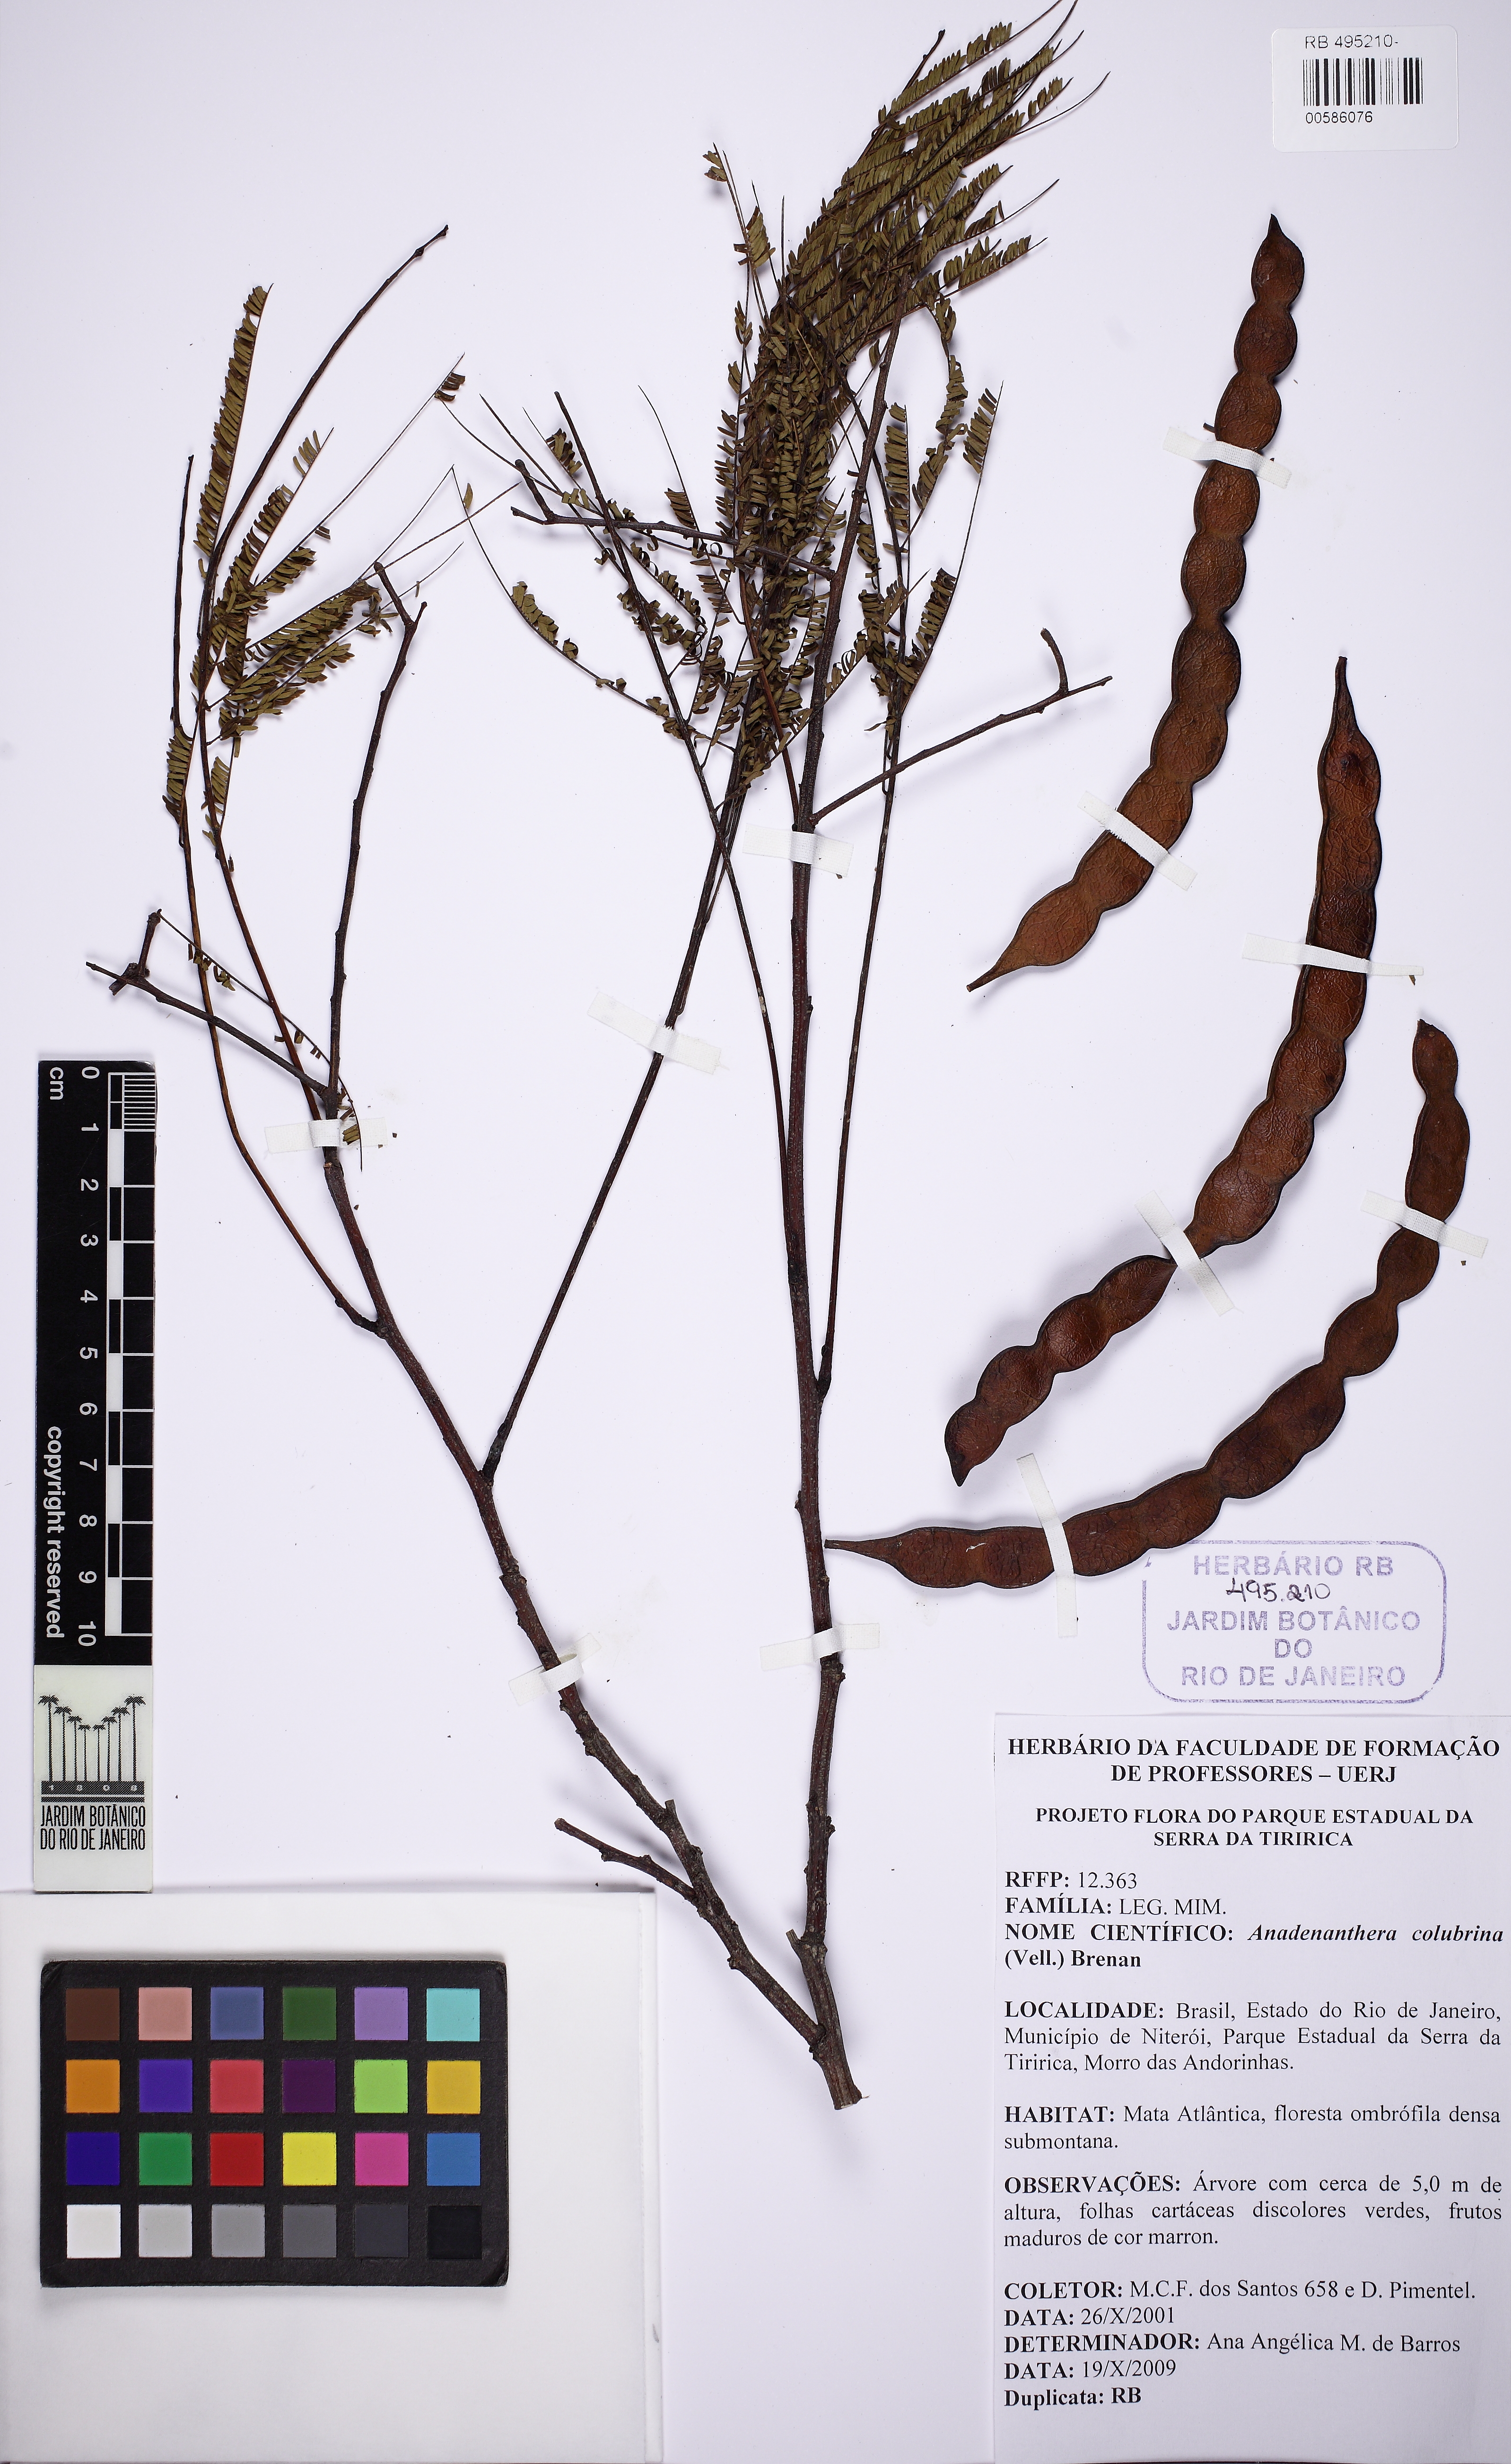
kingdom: Plantae
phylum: Tracheophyta
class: Magnoliopsida
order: Fabales
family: Fabaceae
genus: Anadenanthera
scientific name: Anadenanthera colubrina
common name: Curupay
